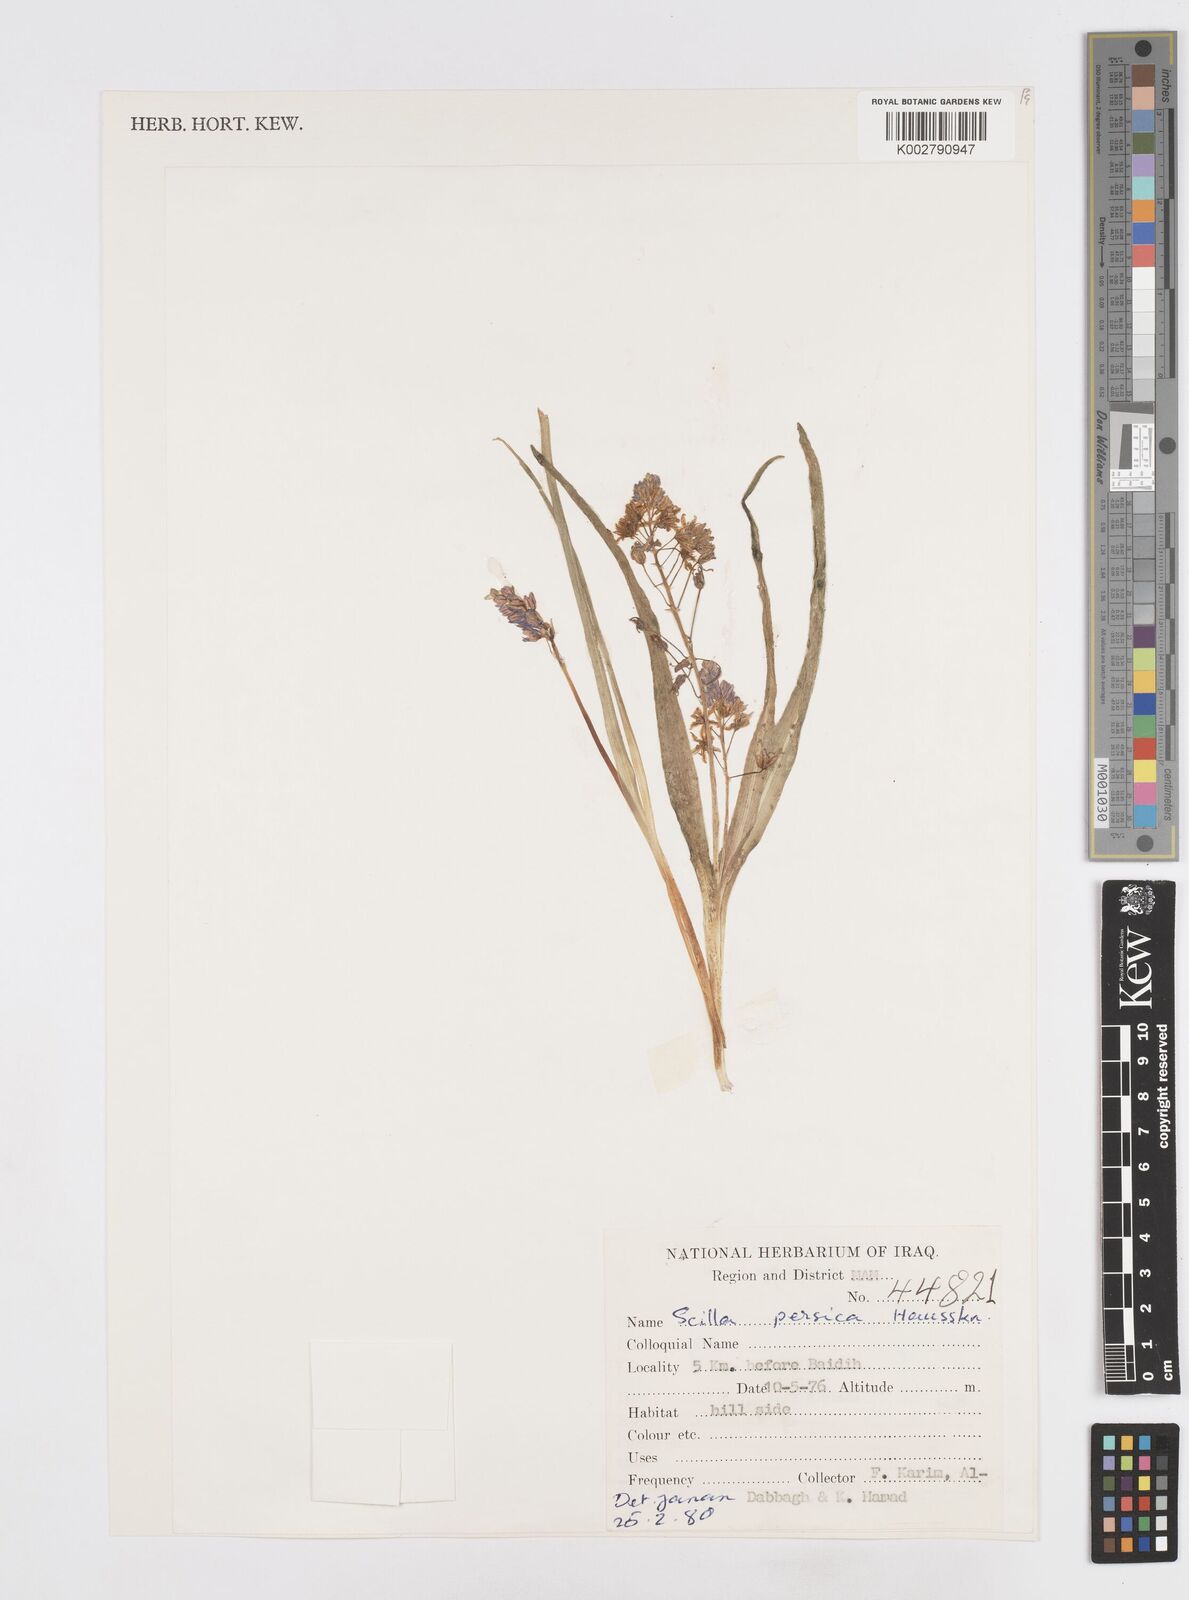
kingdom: Plantae
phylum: Tracheophyta
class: Liliopsida
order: Asparagales
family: Asparagaceae
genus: Zagrosia
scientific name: Zagrosia persica
